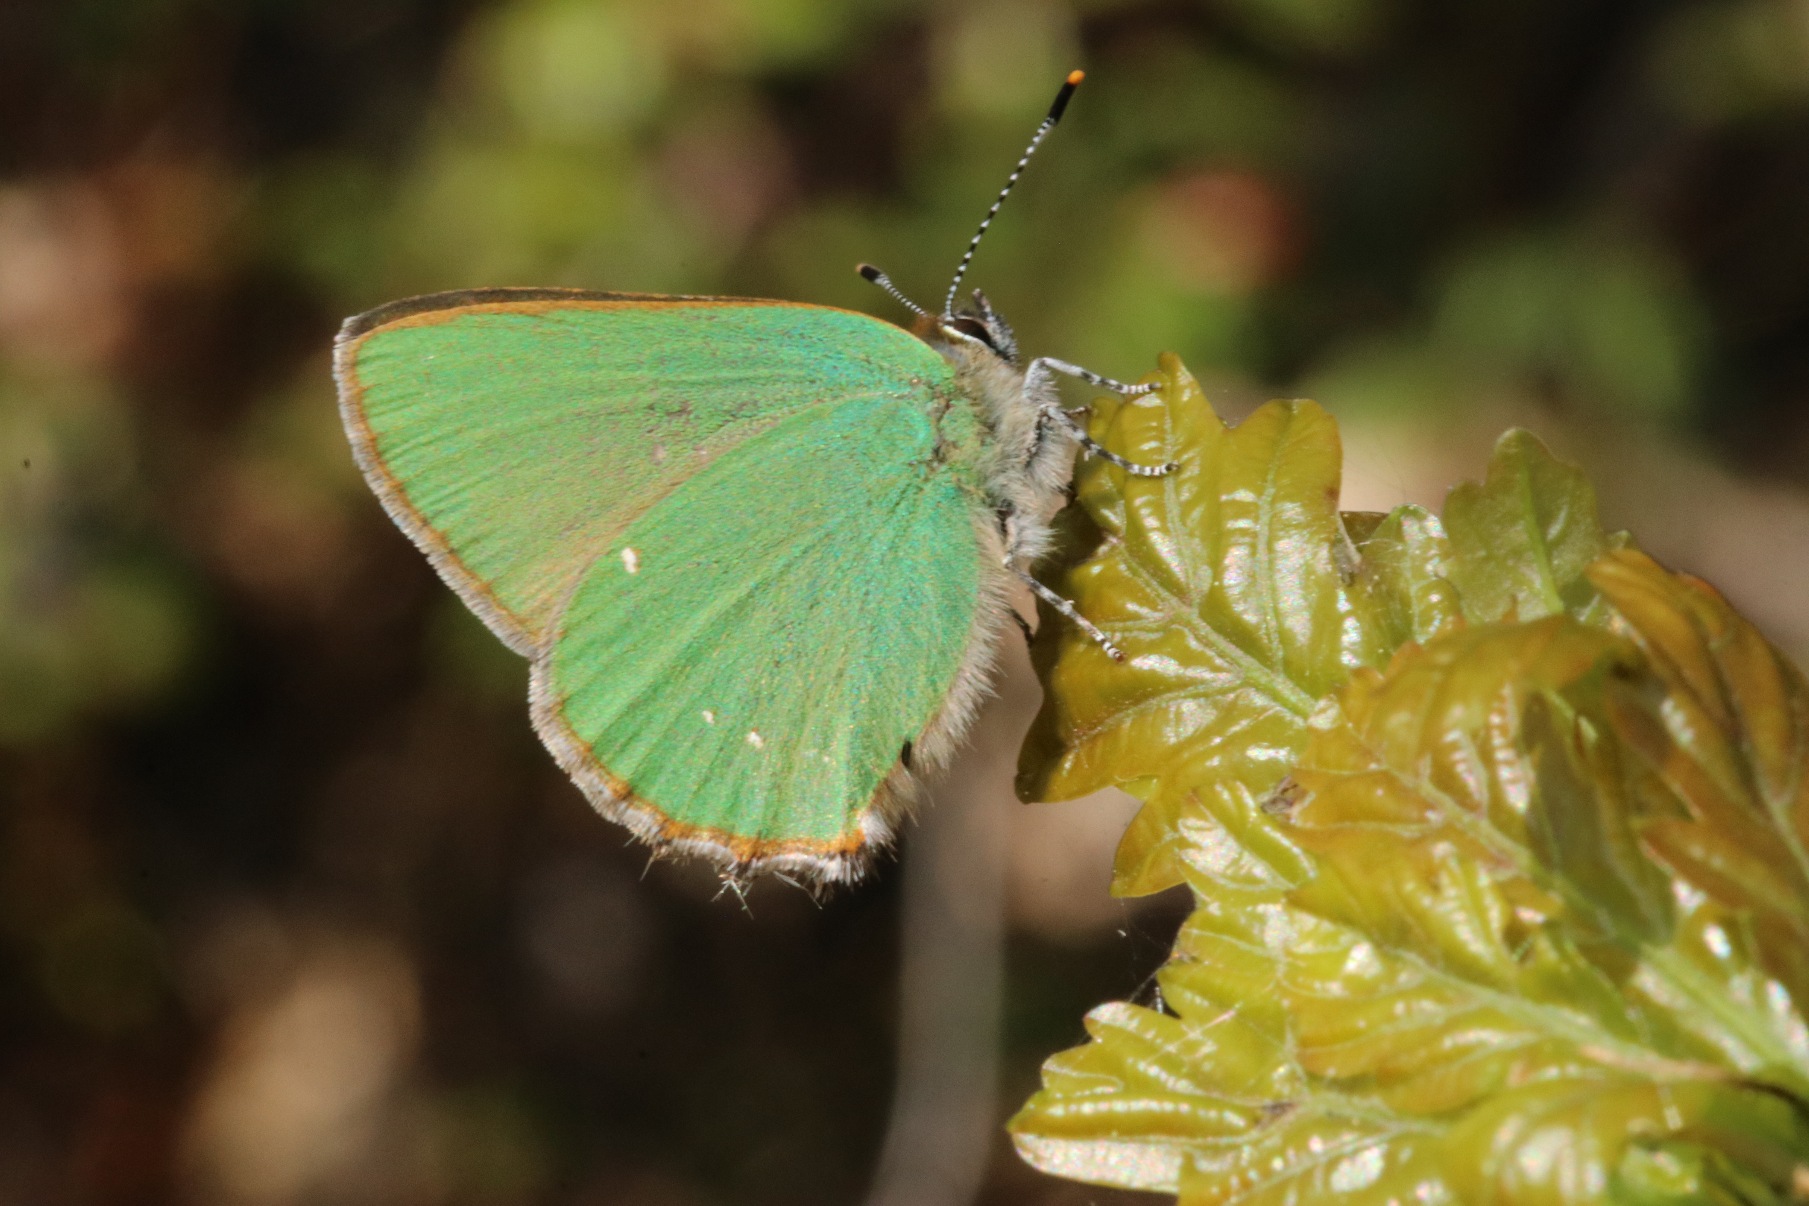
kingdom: Animalia
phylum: Arthropoda
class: Insecta
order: Lepidoptera
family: Lycaenidae
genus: Callophrys
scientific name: Callophrys rubi
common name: Grøn busksommerfugl
